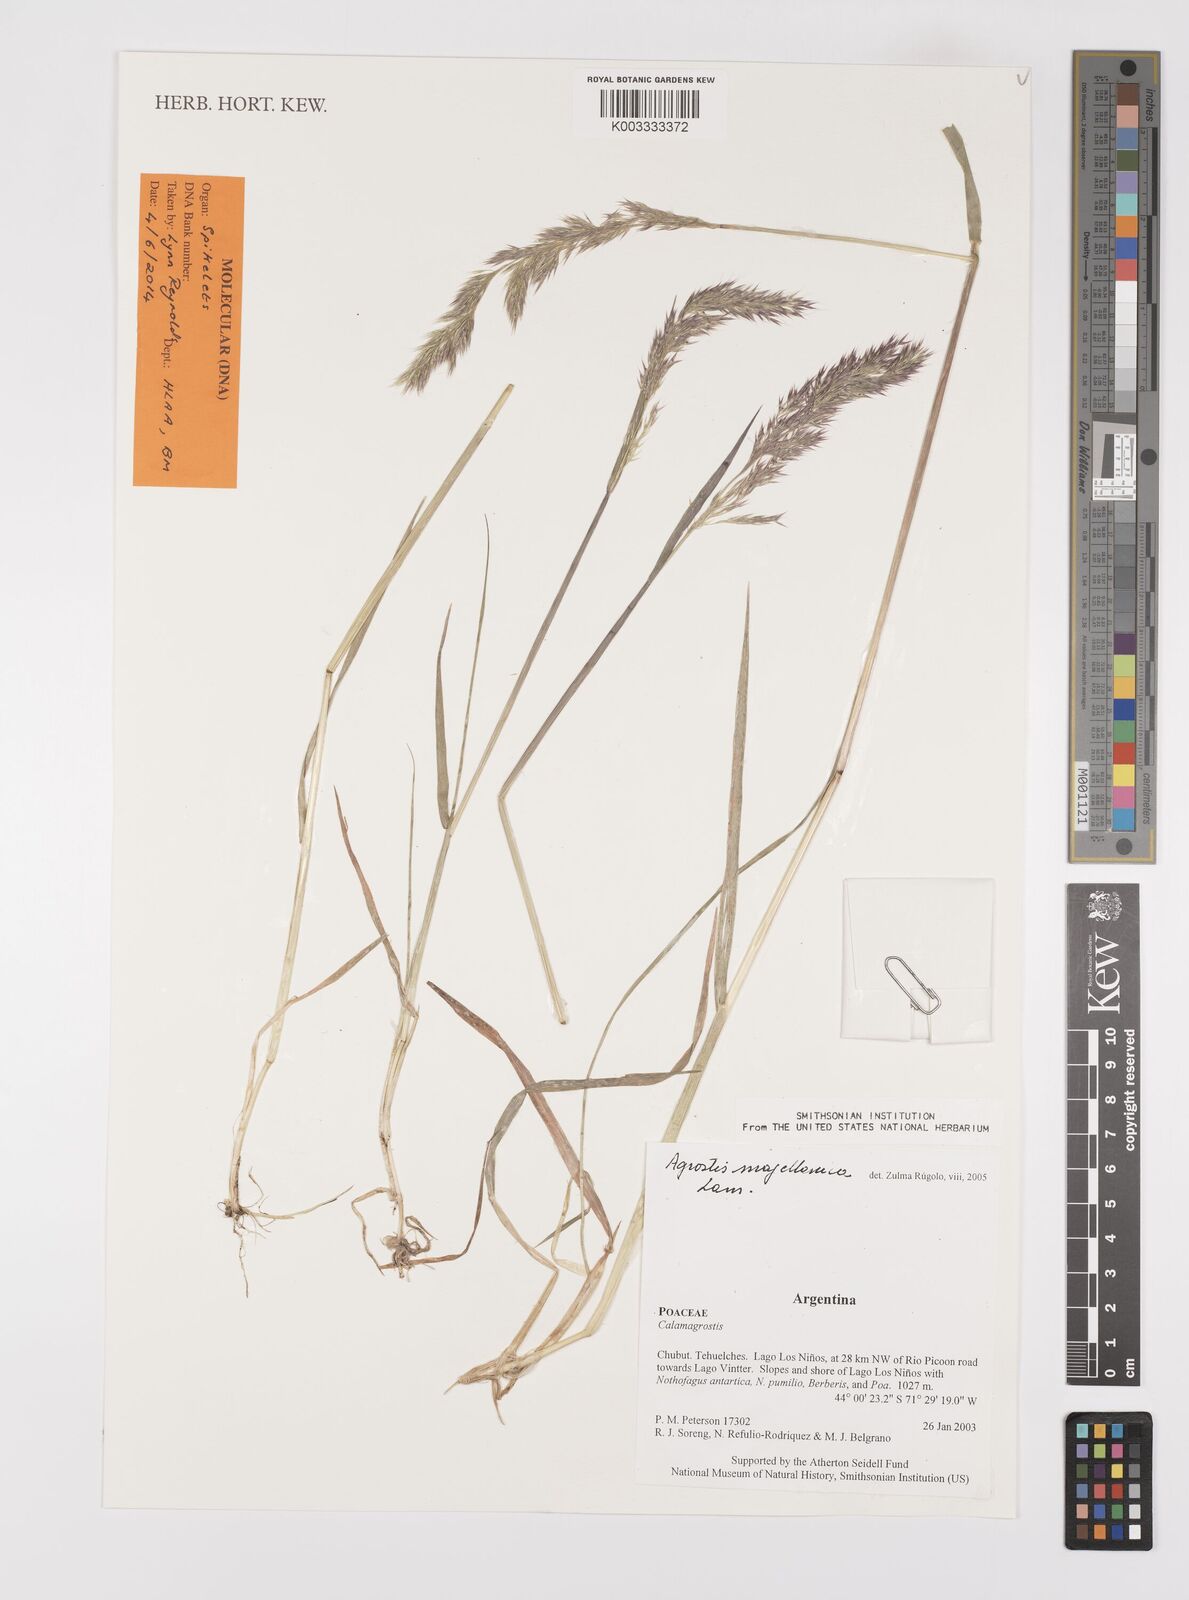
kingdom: Plantae
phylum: Tracheophyta
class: Liliopsida
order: Poales
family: Poaceae
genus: Polypogon
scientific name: Polypogon magellanicus
